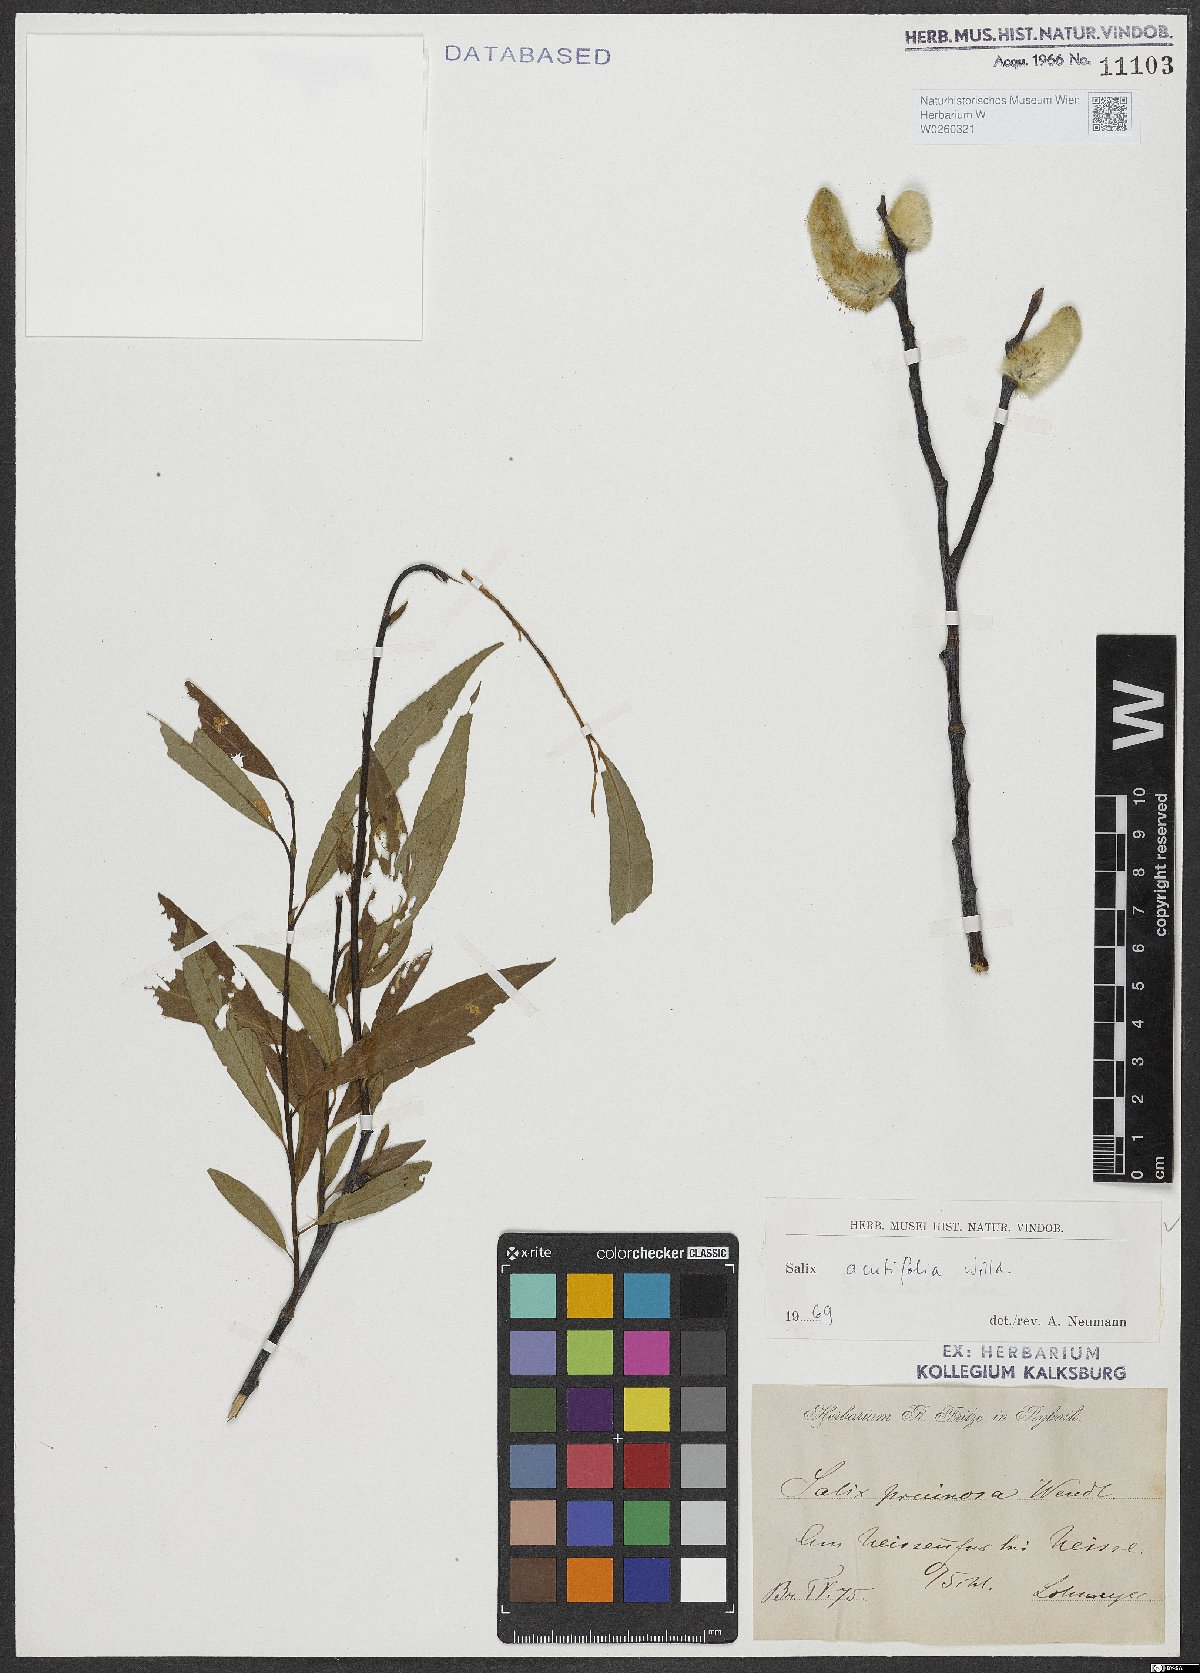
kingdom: Plantae
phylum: Tracheophyta
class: Magnoliopsida
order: Malpighiales
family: Salicaceae
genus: Salix
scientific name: Salix acutifolia
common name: Siberian violet-willow
